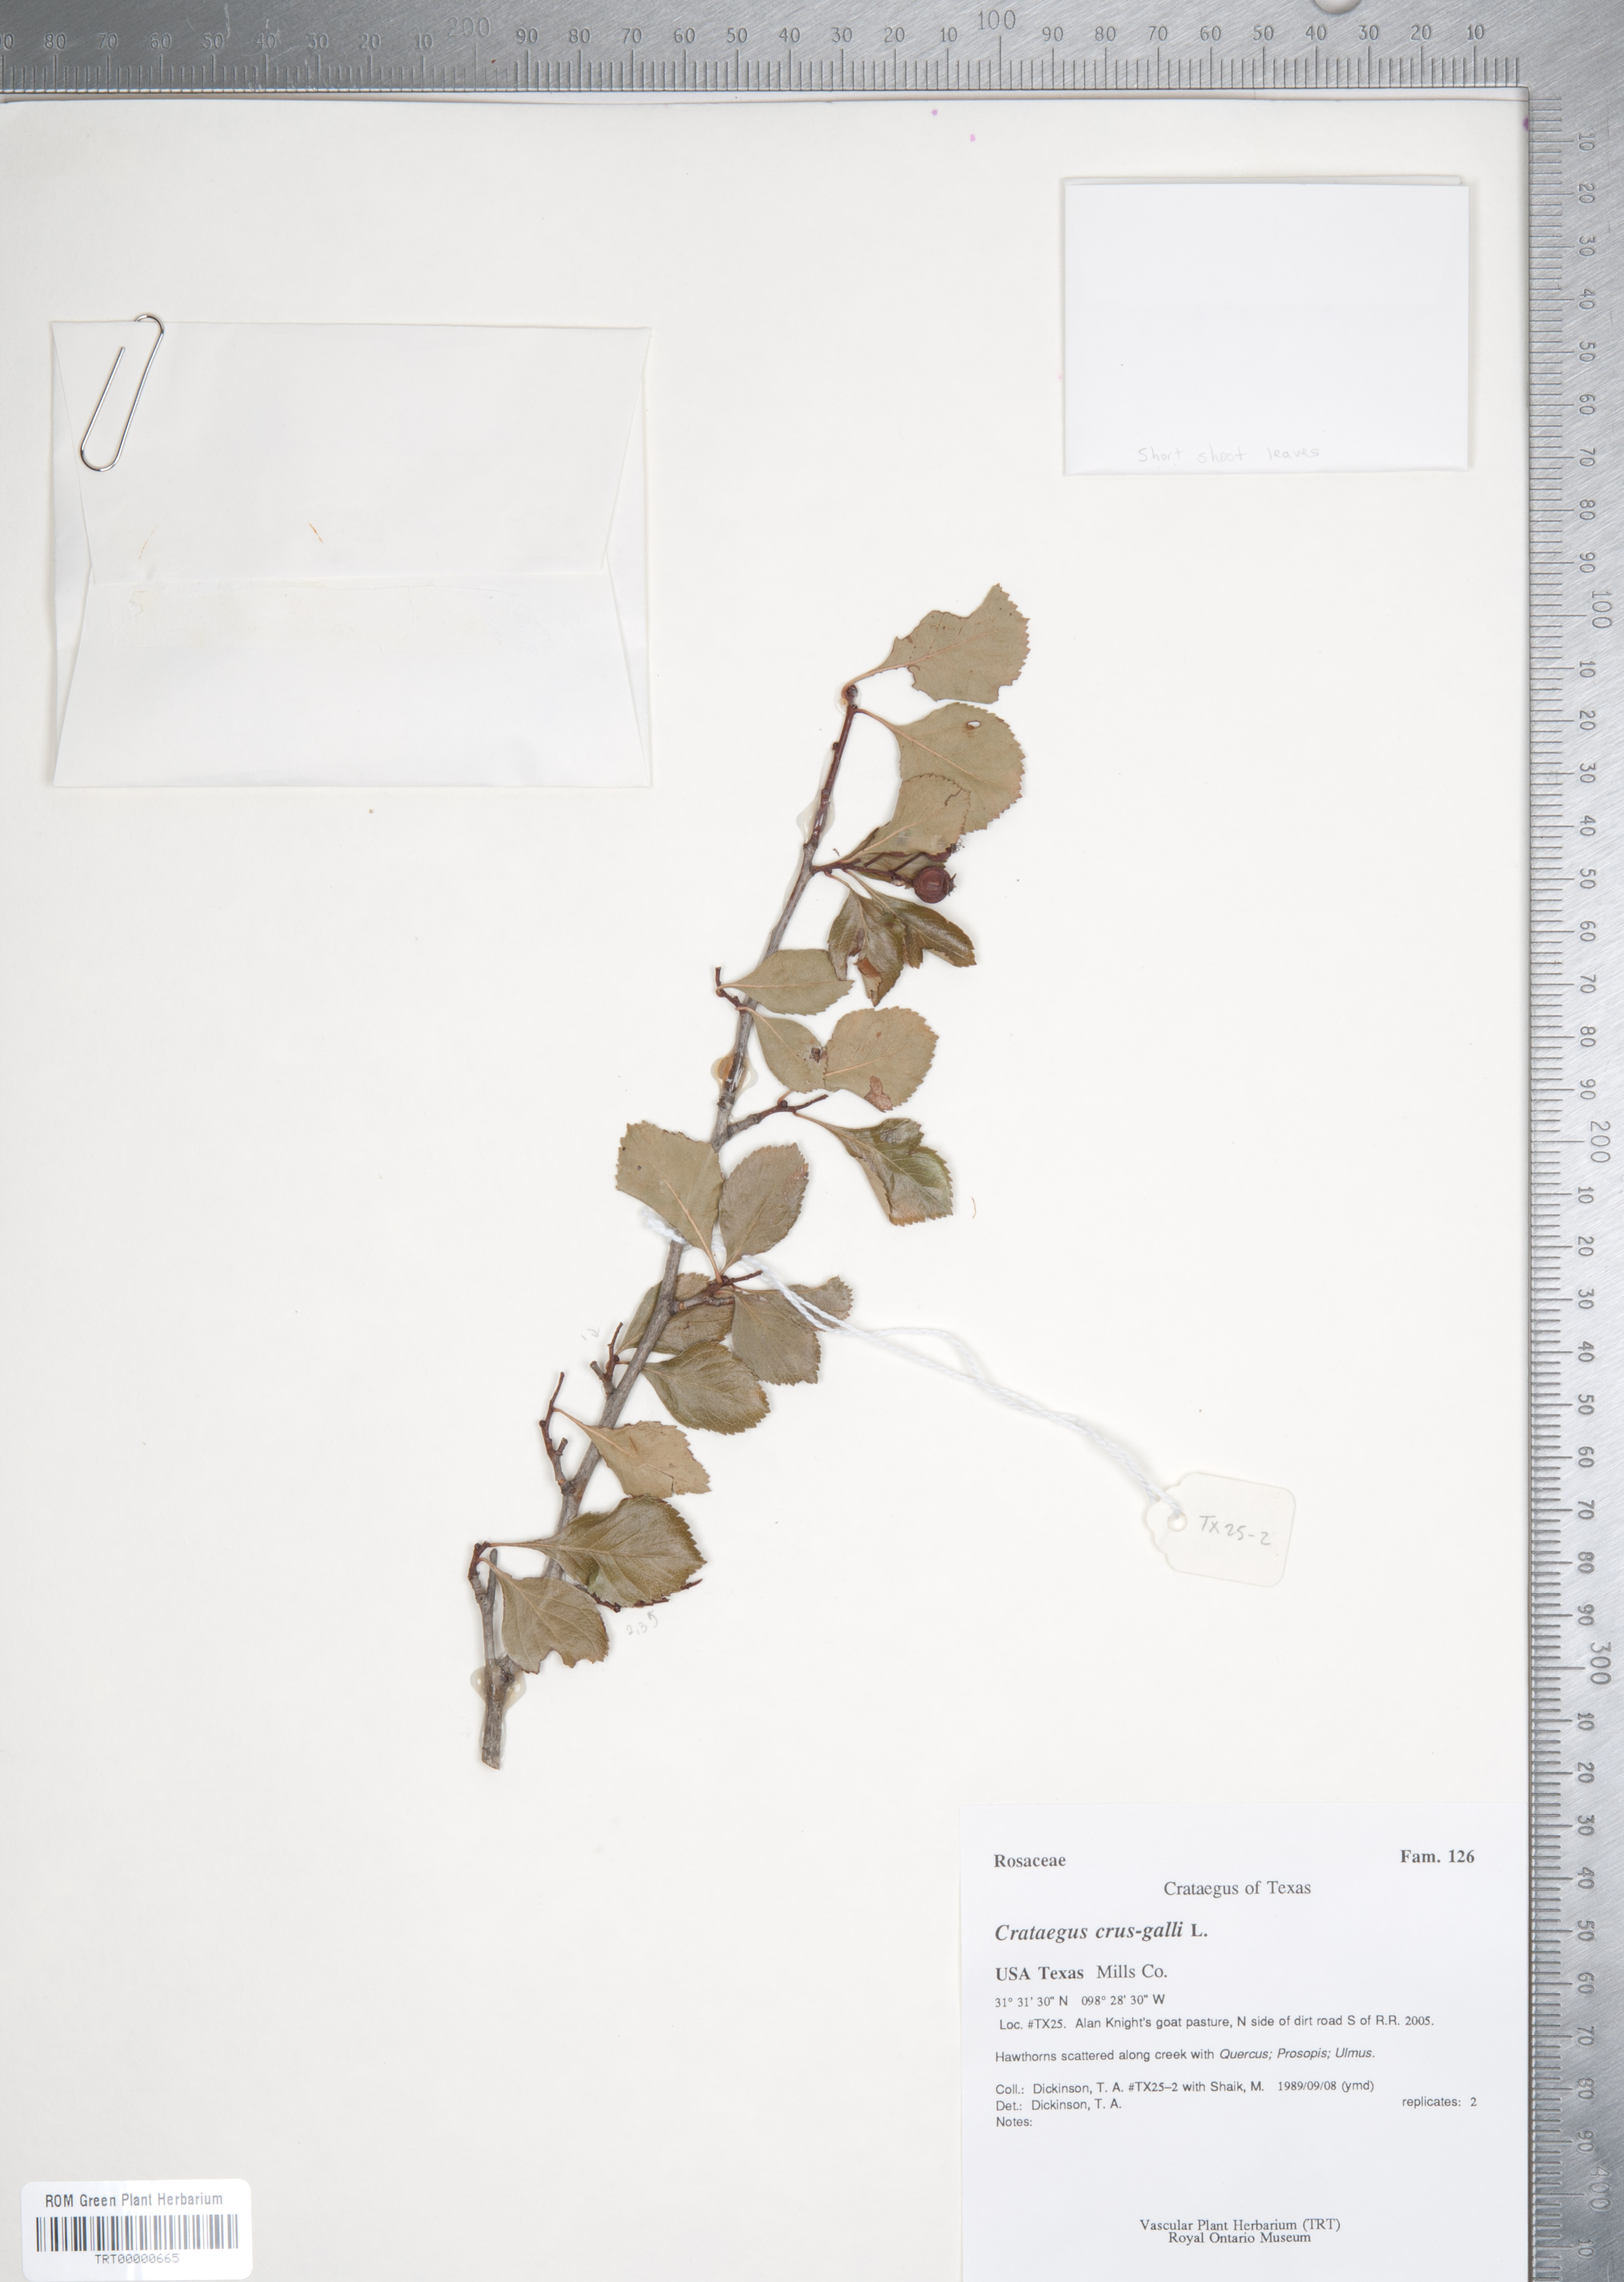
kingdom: Plantae
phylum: Tracheophyta
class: Magnoliopsida
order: Rosales
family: Rosaceae
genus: Crataegus
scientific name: Crataegus crus-galli
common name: Cockspurthorn
